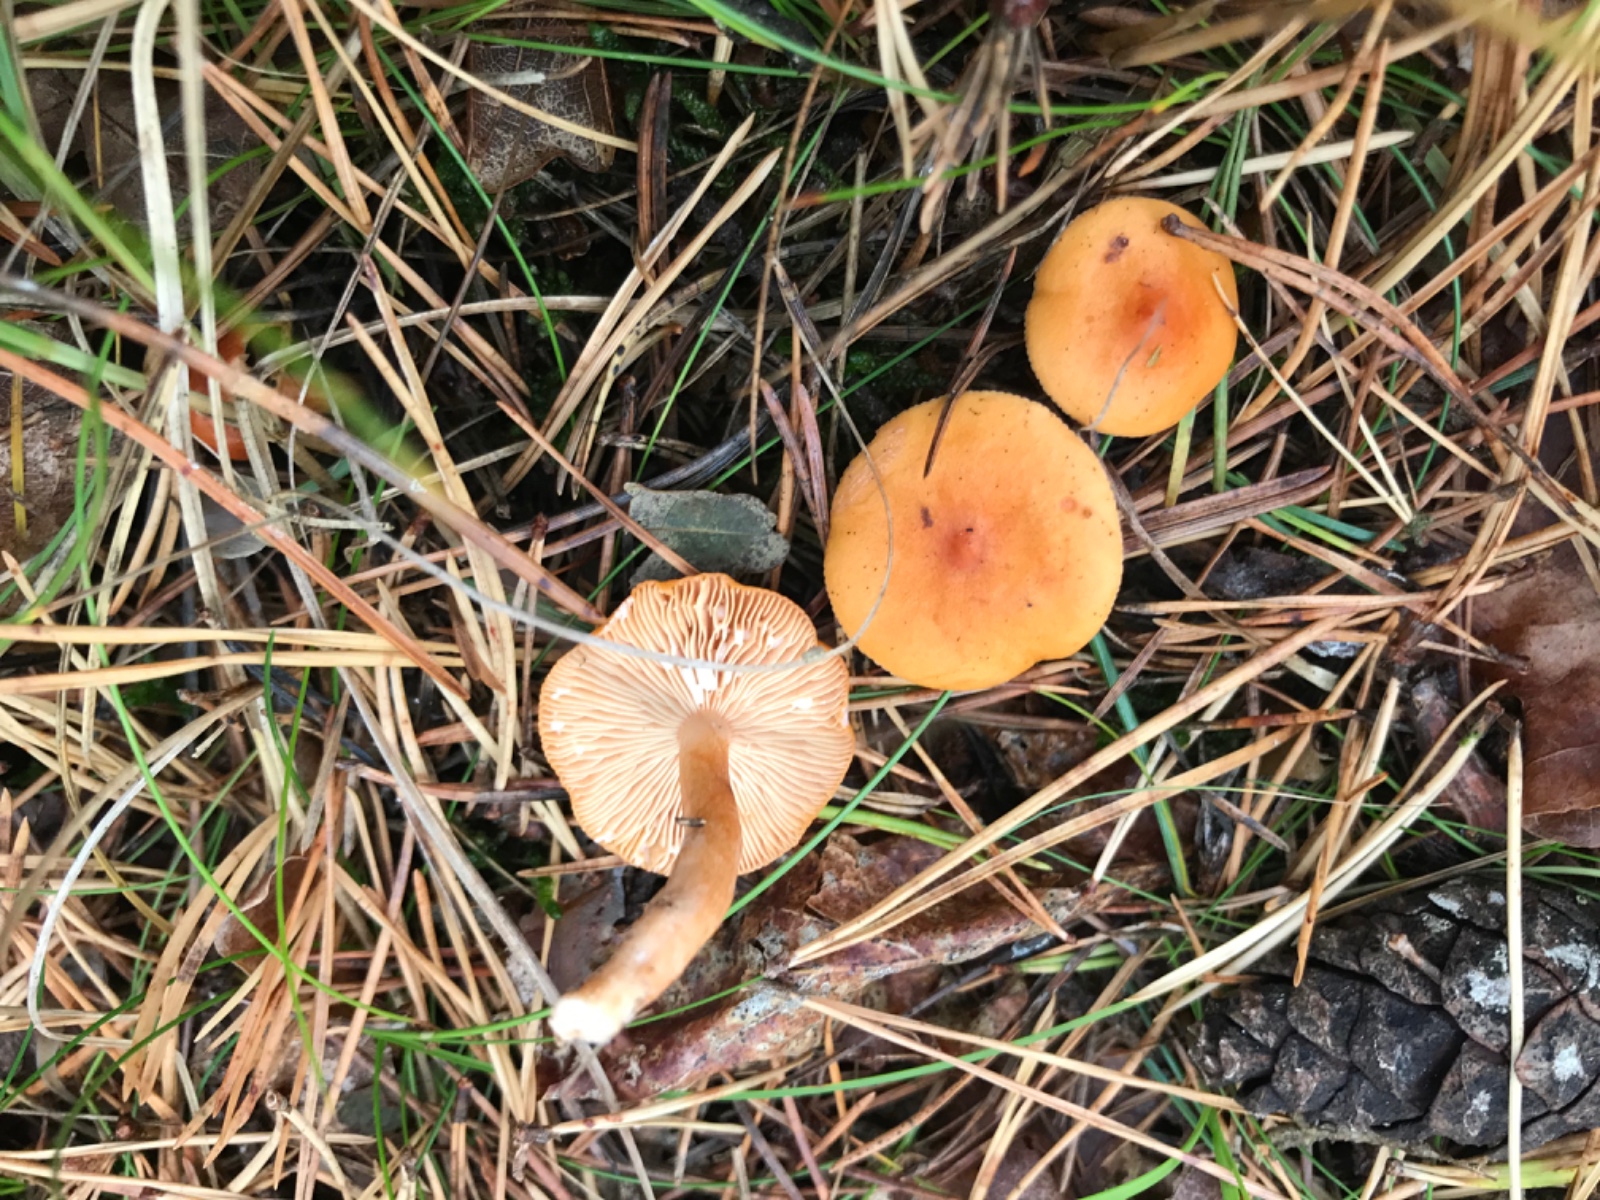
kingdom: Fungi
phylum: Basidiomycota
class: Agaricomycetes
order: Russulales
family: Russulaceae
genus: Lactarius
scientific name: Lactarius aurantiacus
